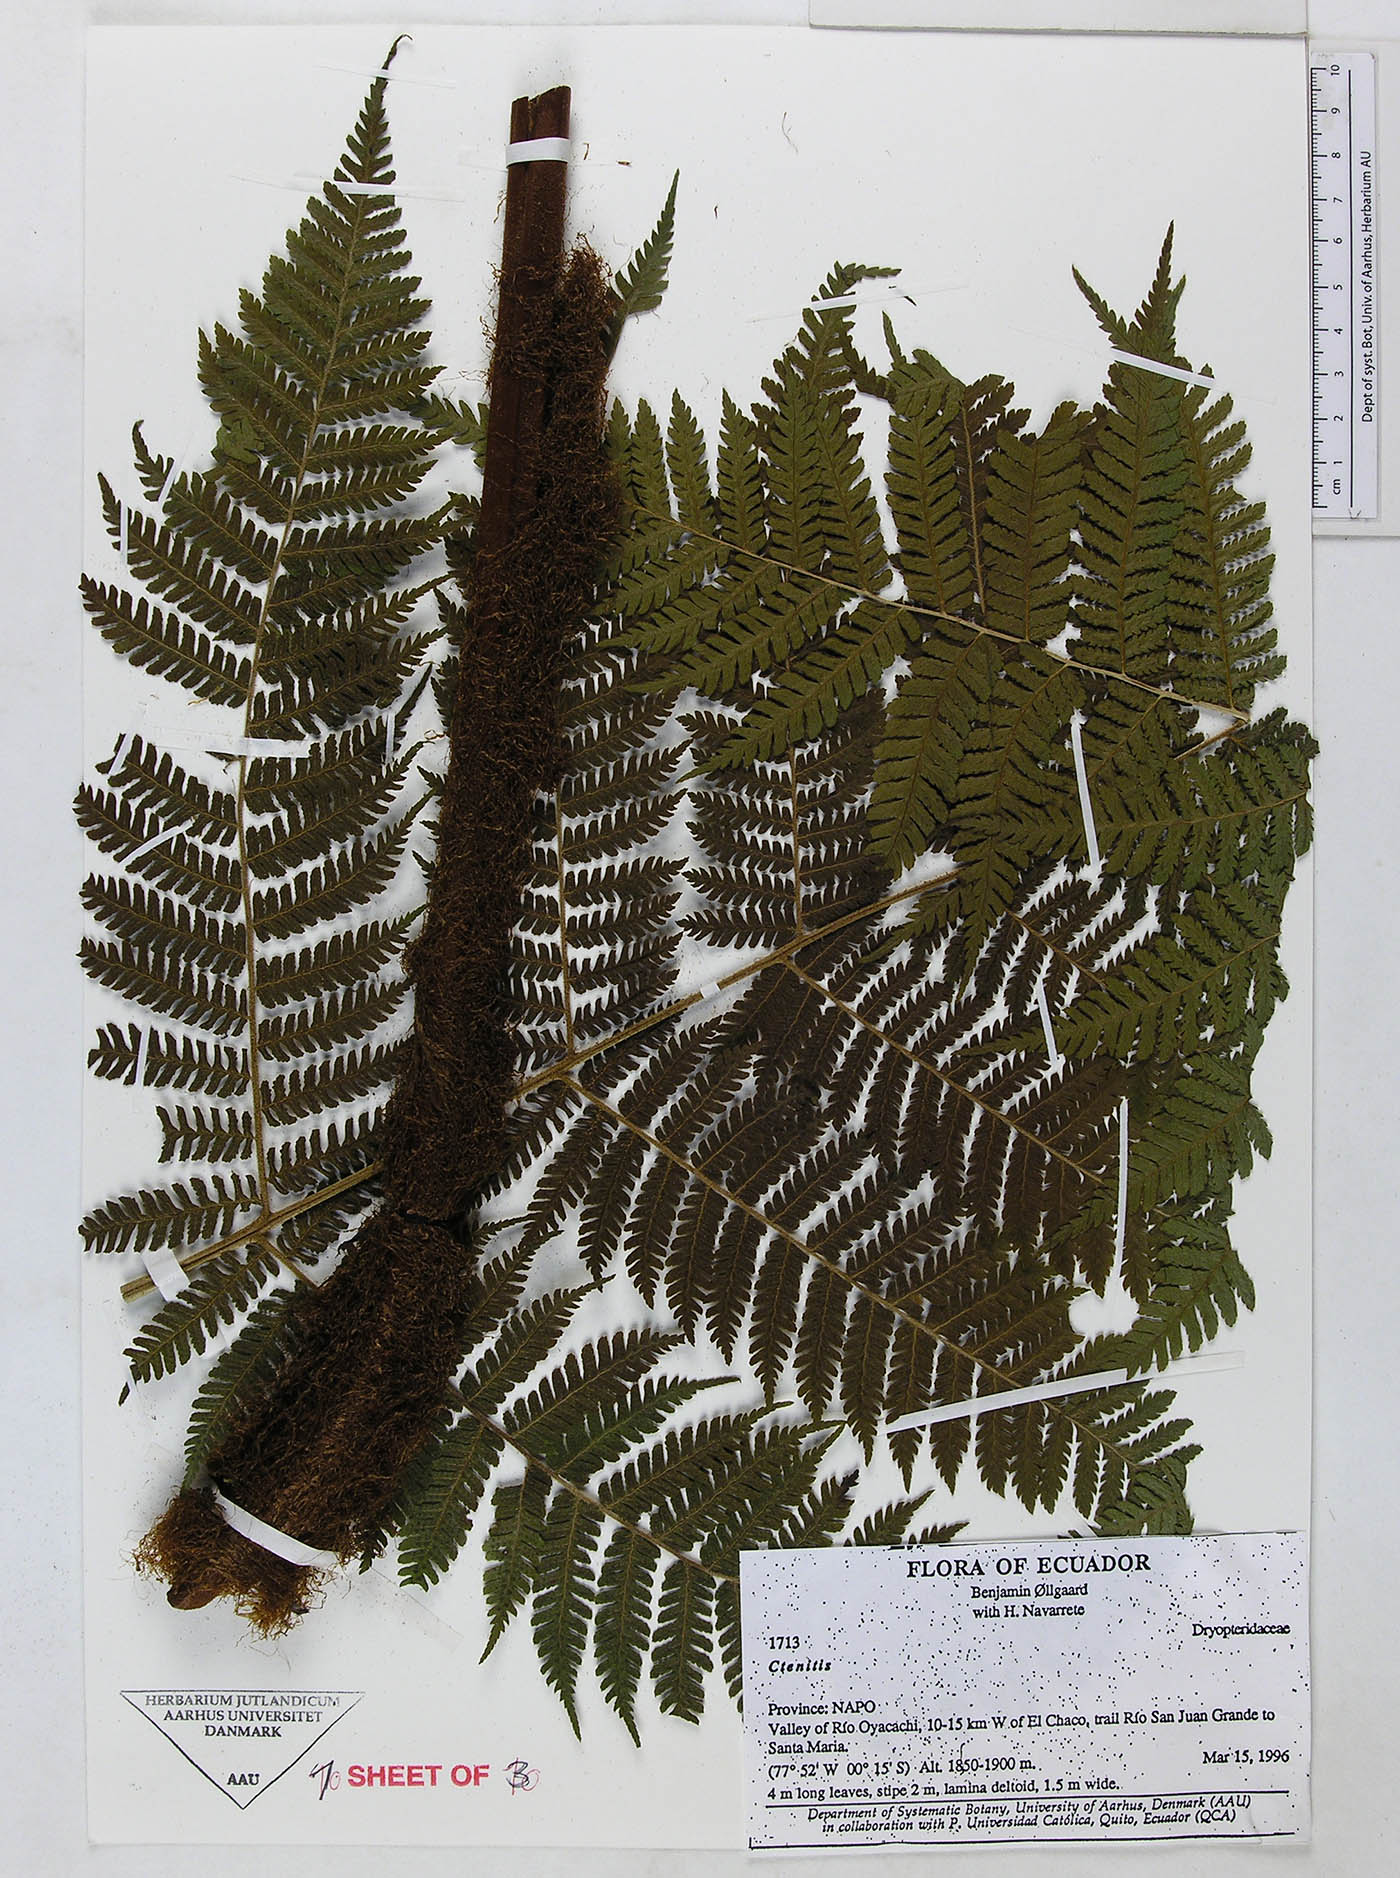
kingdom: Plantae
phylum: Tracheophyta
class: Polypodiopsida
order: Polypodiales
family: Dryopteridaceae
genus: Megalastrum
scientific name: Megalastrum fugaceum
